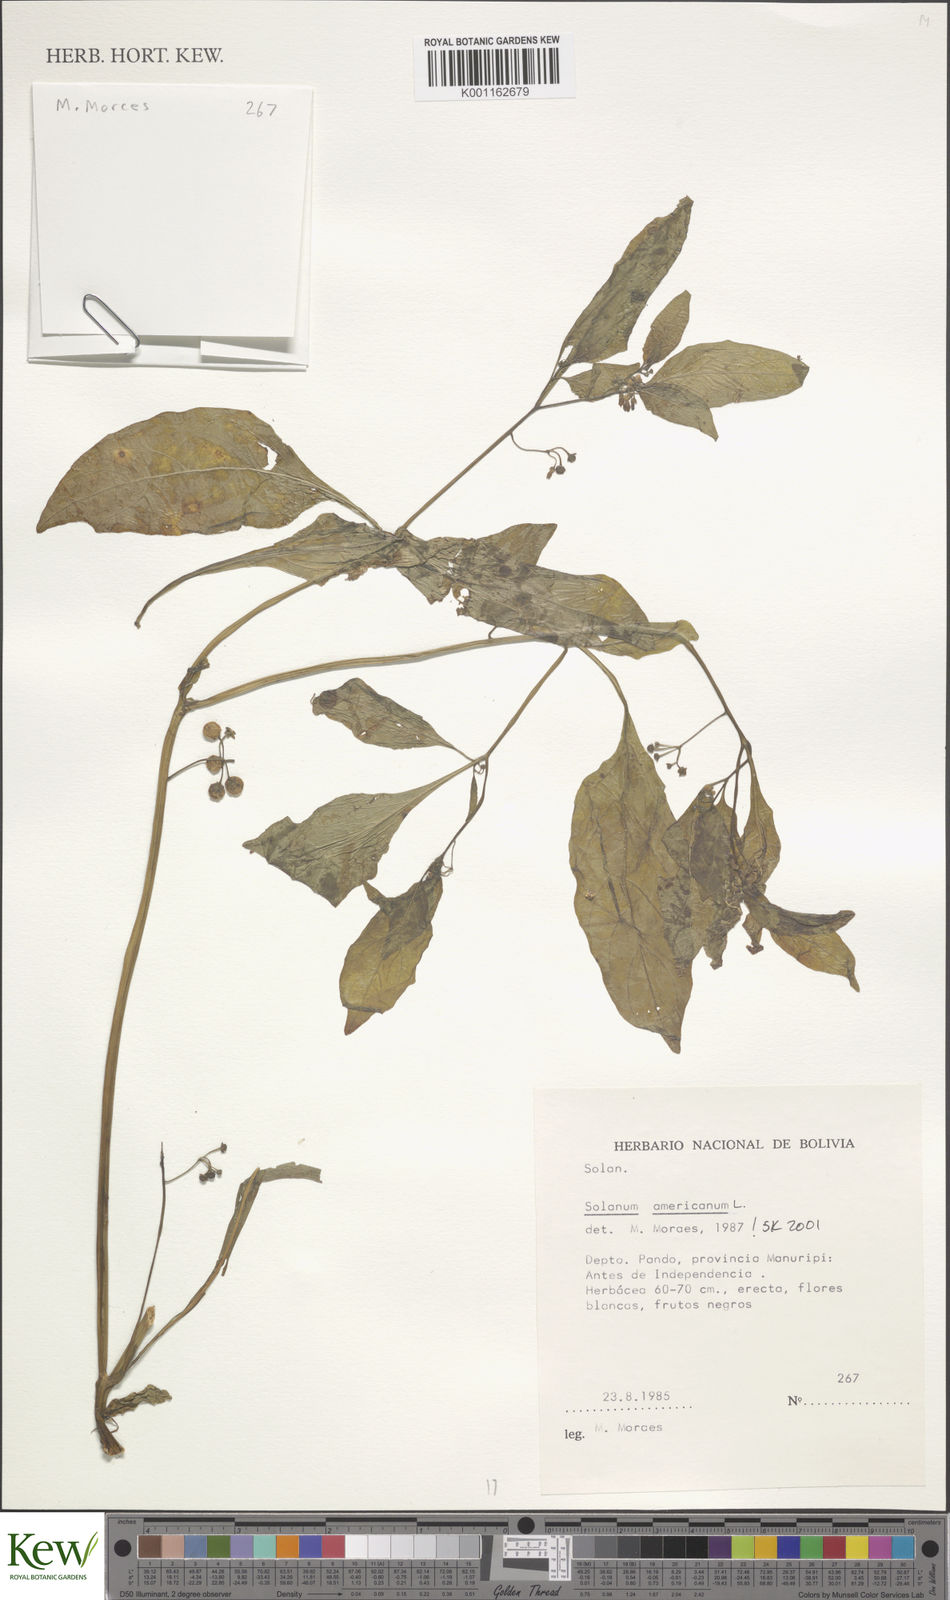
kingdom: Plantae
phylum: Tracheophyta
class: Magnoliopsida
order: Solanales
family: Solanaceae
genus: Solanum
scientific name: Solanum americanum
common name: American black nightshade
